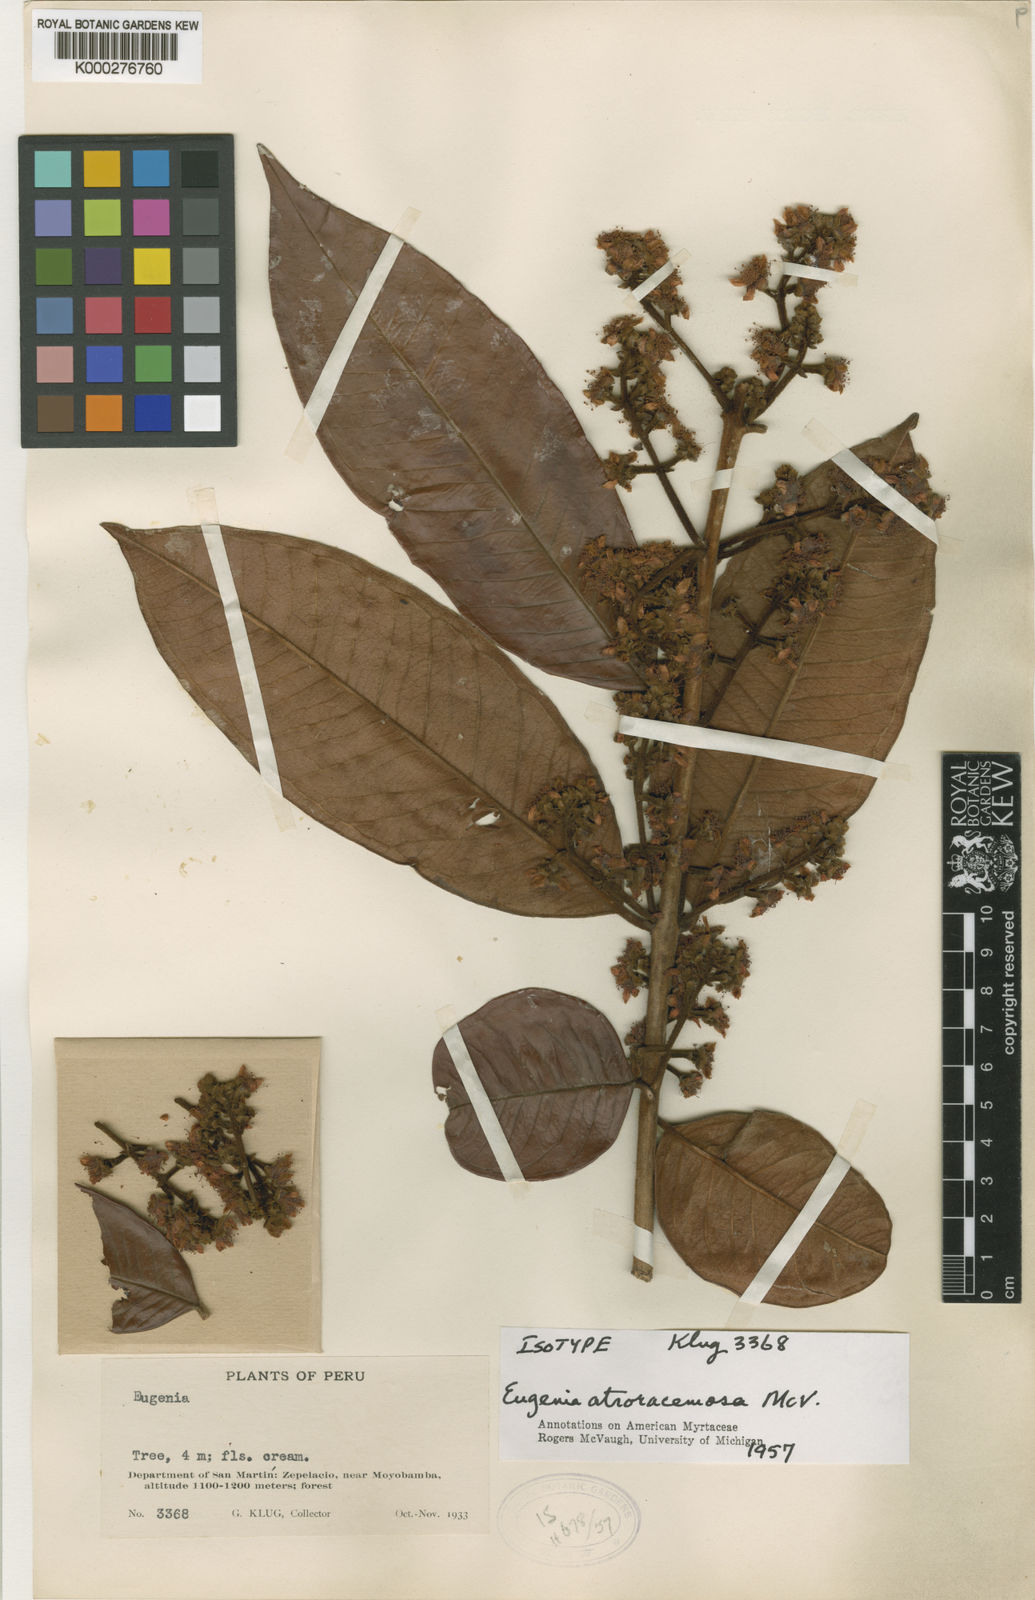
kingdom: Plantae
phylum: Tracheophyta
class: Magnoliopsida
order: Myrtales
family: Myrtaceae
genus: Eugenia
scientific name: Eugenia atroracemosa
